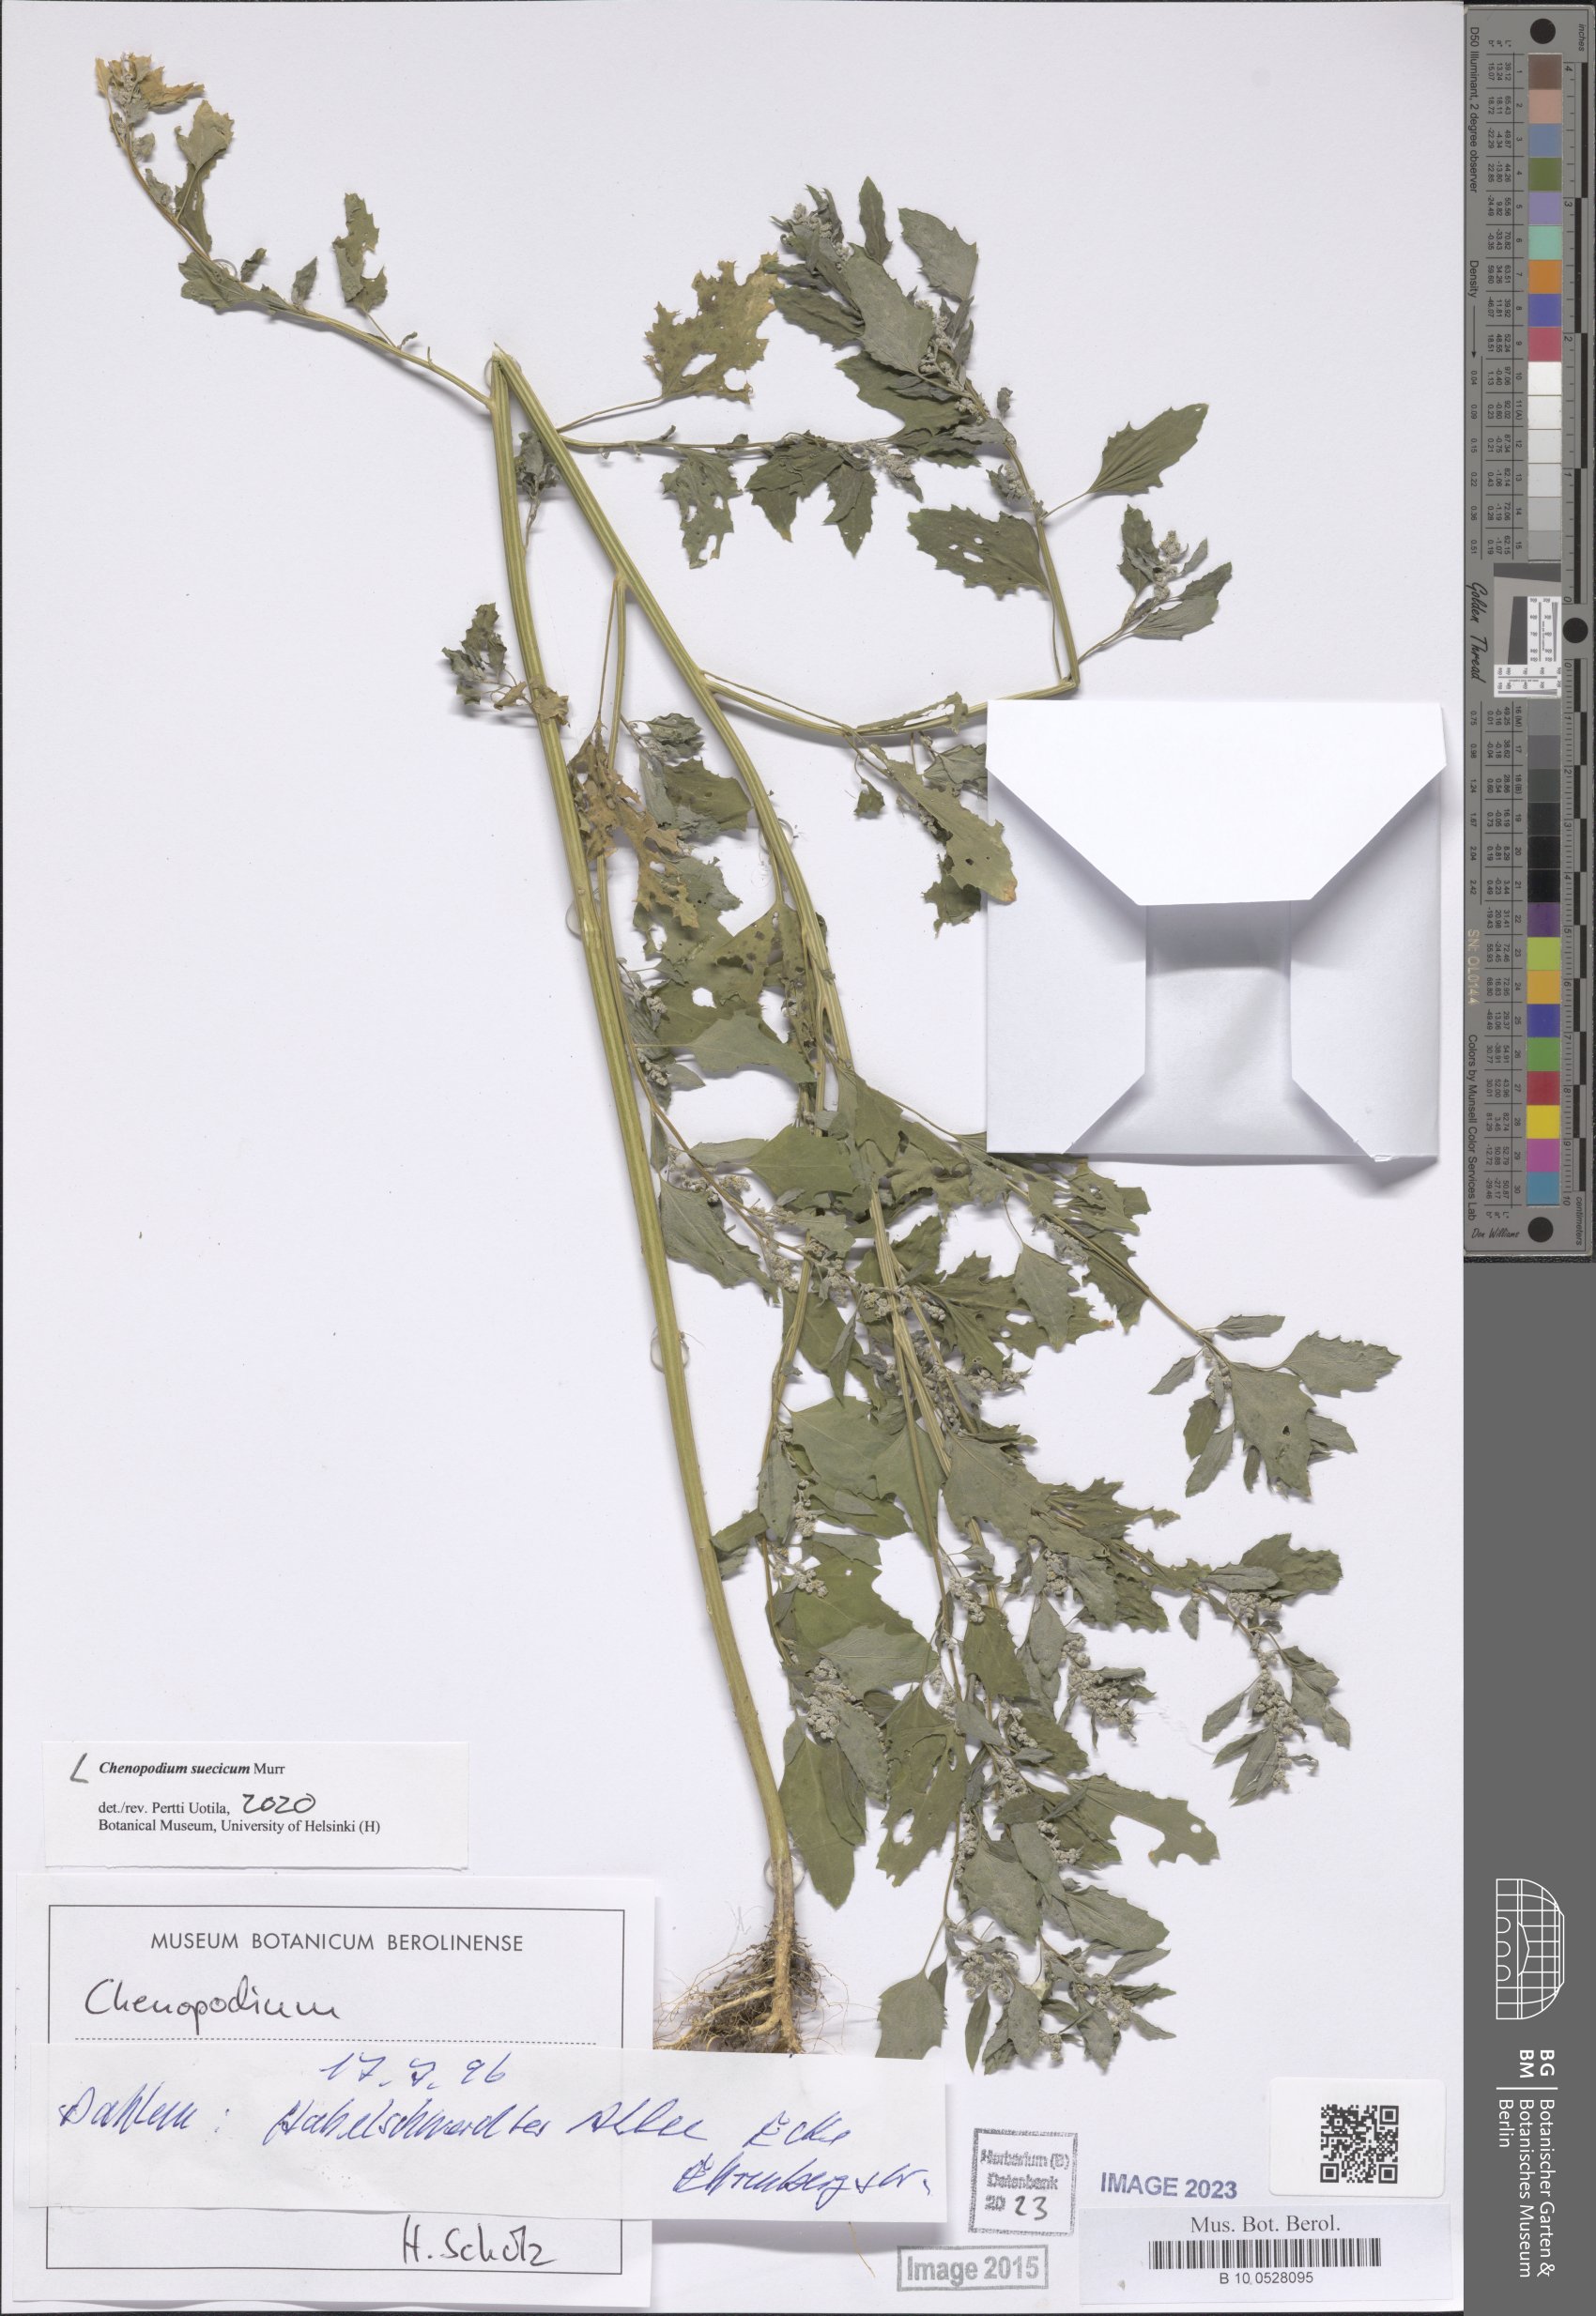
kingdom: Plantae
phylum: Tracheophyta
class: Magnoliopsida
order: Caryophyllales
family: Amaranthaceae
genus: Chenopodium
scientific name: Chenopodium suecicum
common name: Swedish goosefoot
